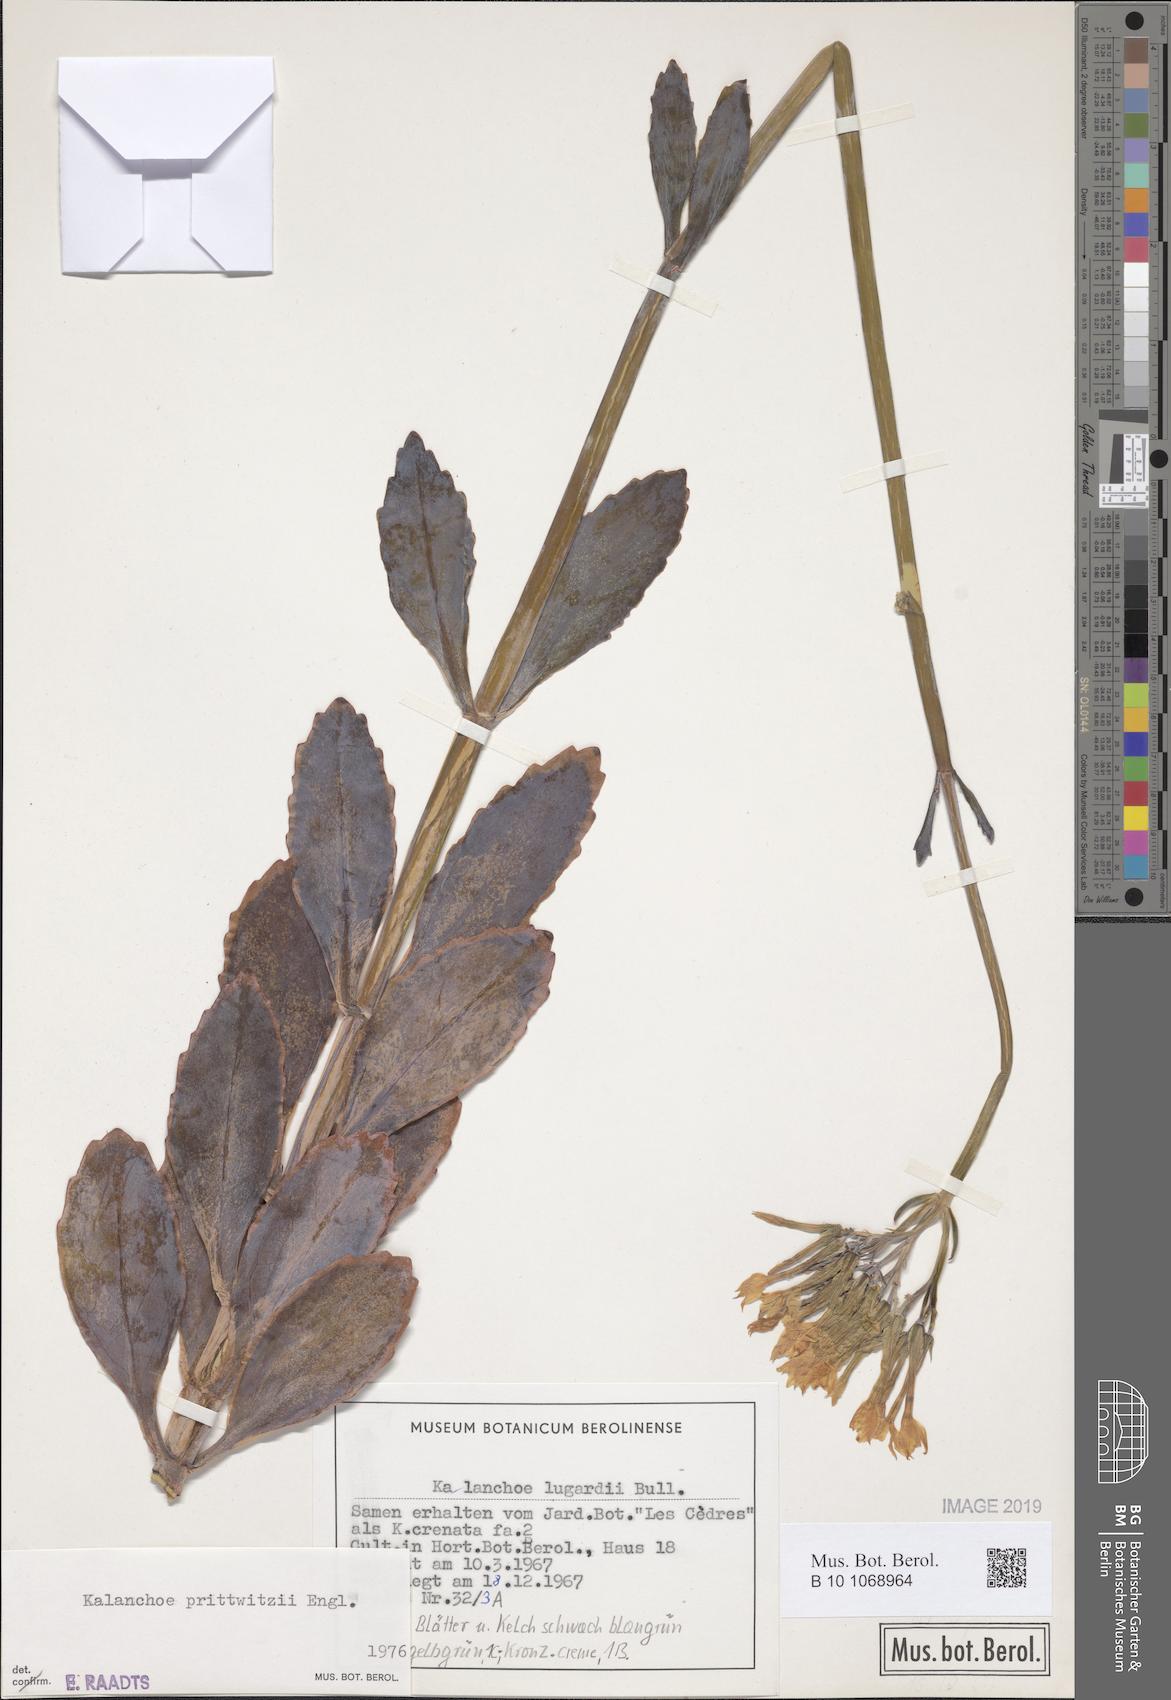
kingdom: Plantae
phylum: Tracheophyta
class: Magnoliopsida
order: Saxifragales
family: Crassulaceae
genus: Kalanchoe
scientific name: Kalanchoe prittwitzii
